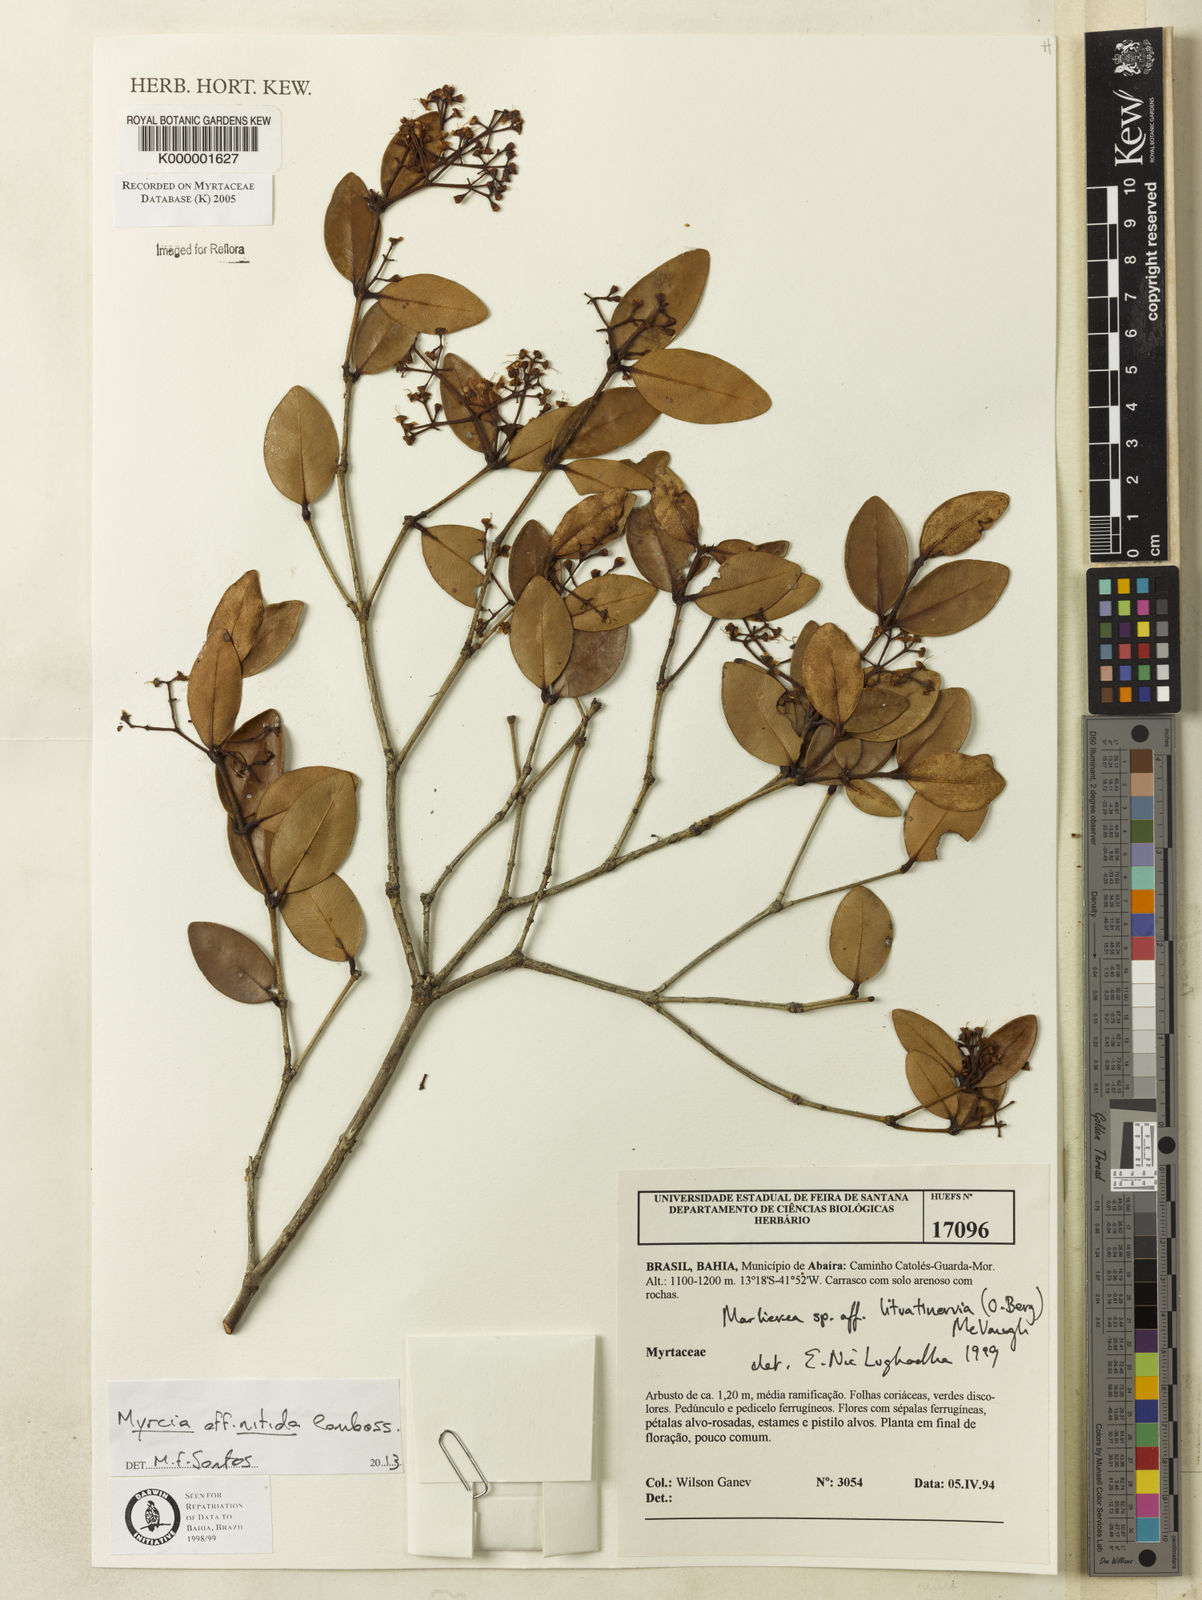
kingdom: Plantae
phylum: Tracheophyta
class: Magnoliopsida
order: Myrtales
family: Myrtaceae
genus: Myrcia
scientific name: Myrcia lituatinervia
